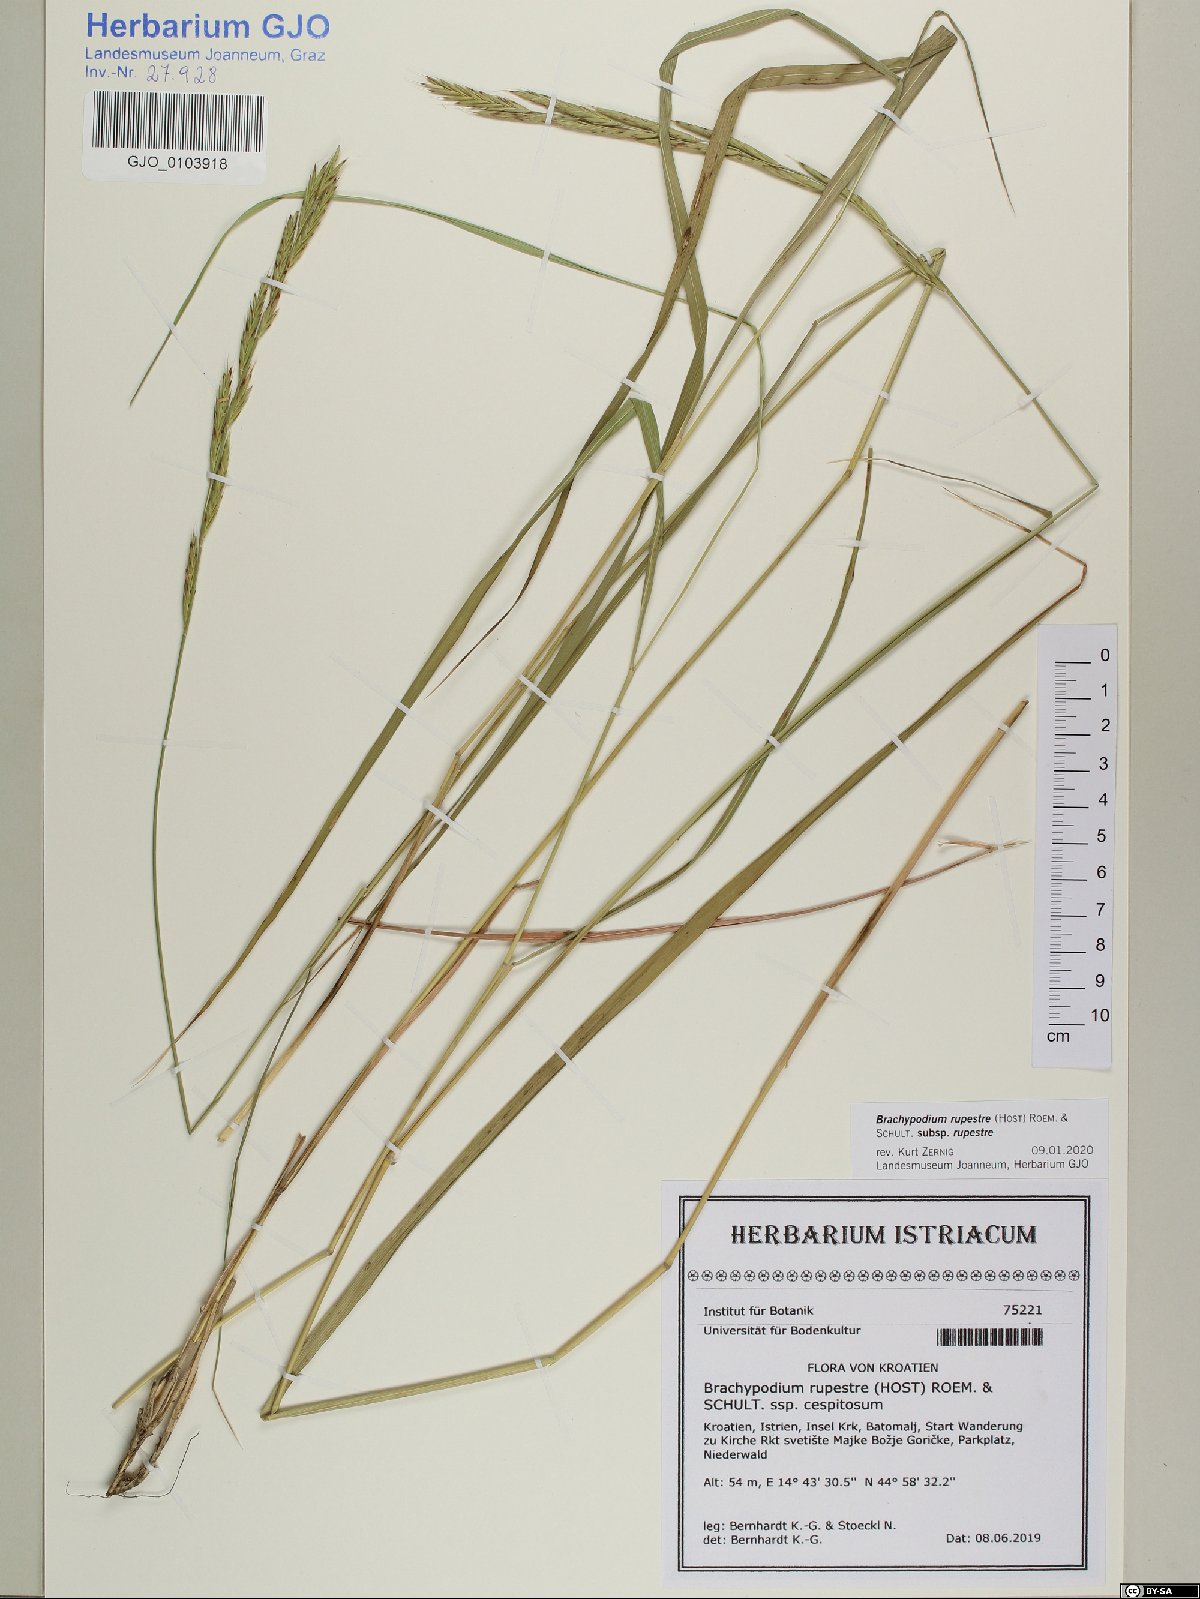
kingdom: Plantae
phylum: Tracheophyta
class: Liliopsida
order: Poales
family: Poaceae
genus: Brachypodium
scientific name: Brachypodium pinnatum
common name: Tor grass
